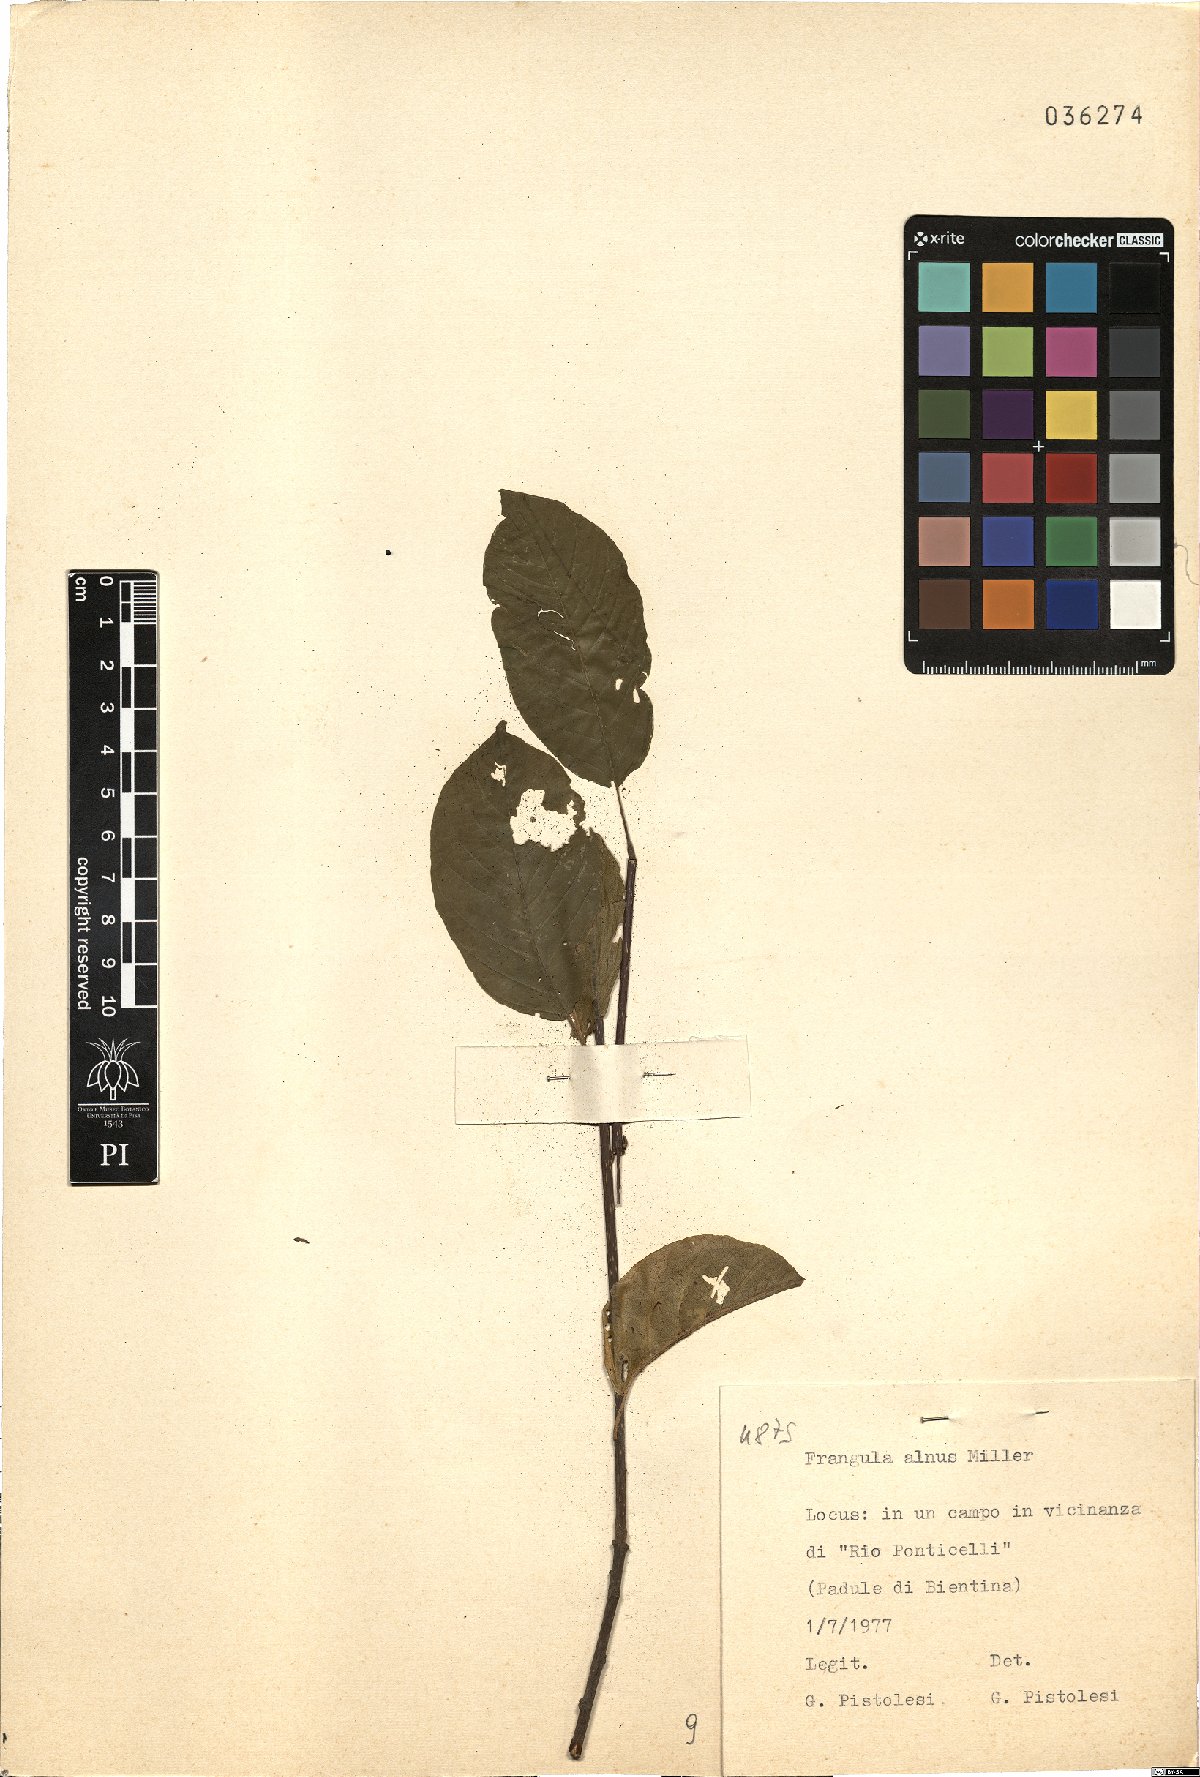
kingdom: Plantae
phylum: Tracheophyta
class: Magnoliopsida
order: Rosales
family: Rhamnaceae
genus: Frangula
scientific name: Frangula alnus
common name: Alder buckthorn
